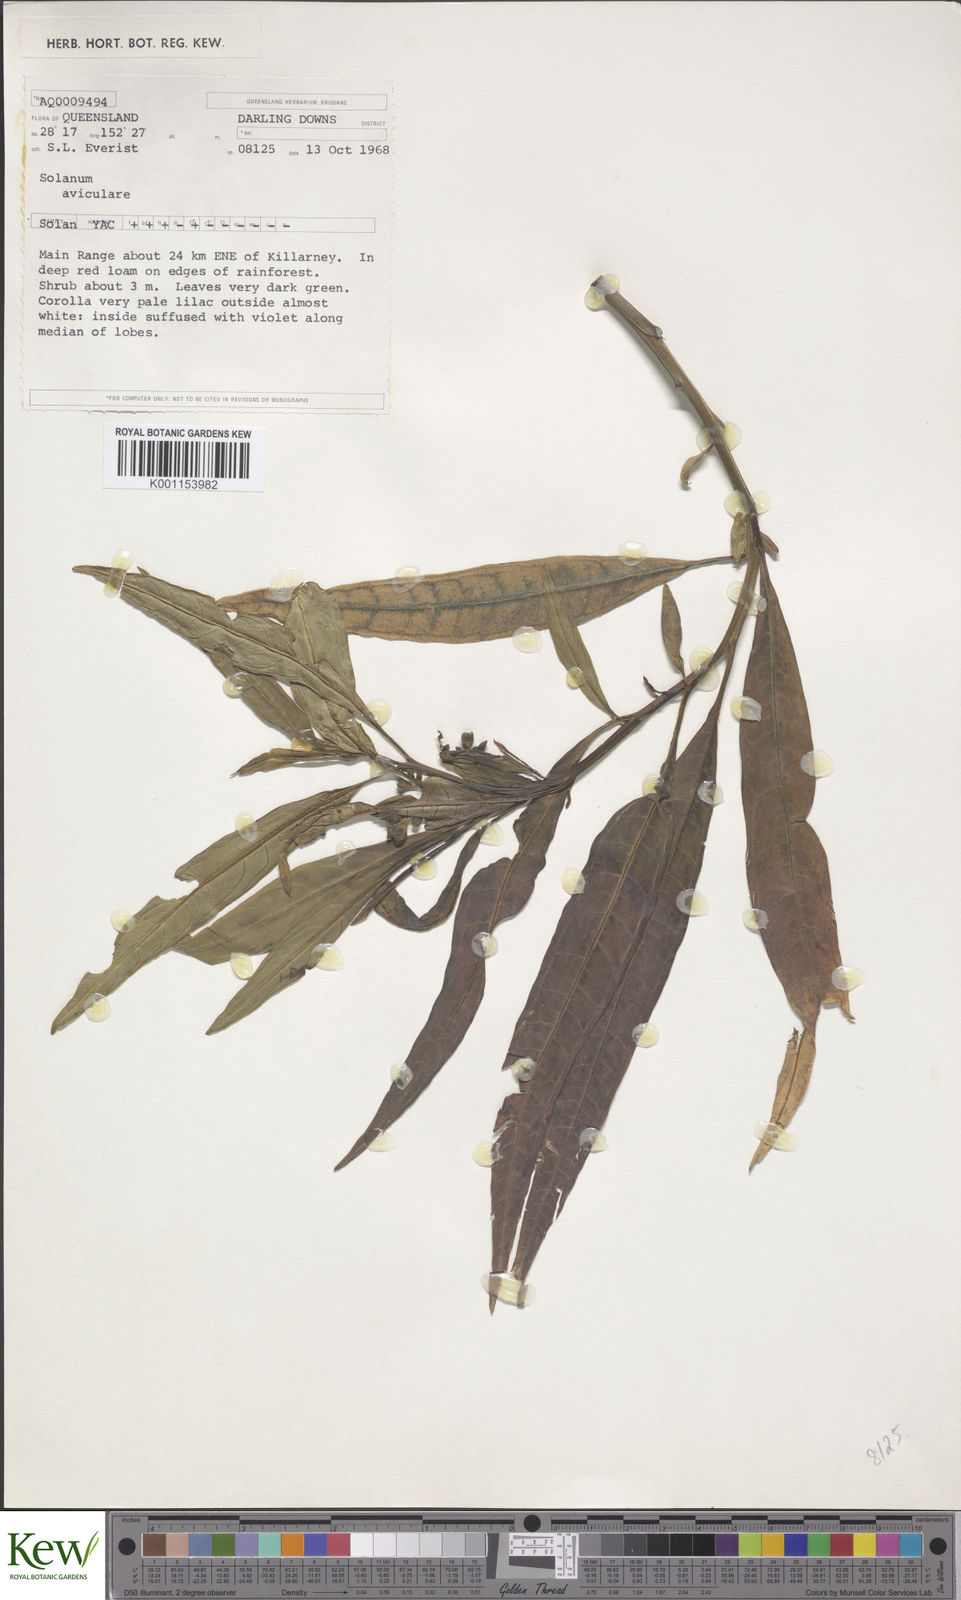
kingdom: Plantae
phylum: Tracheophyta
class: Magnoliopsida
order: Solanales
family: Solanaceae
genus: Solanum
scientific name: Solanum aviculare
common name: New zealand nightshade
